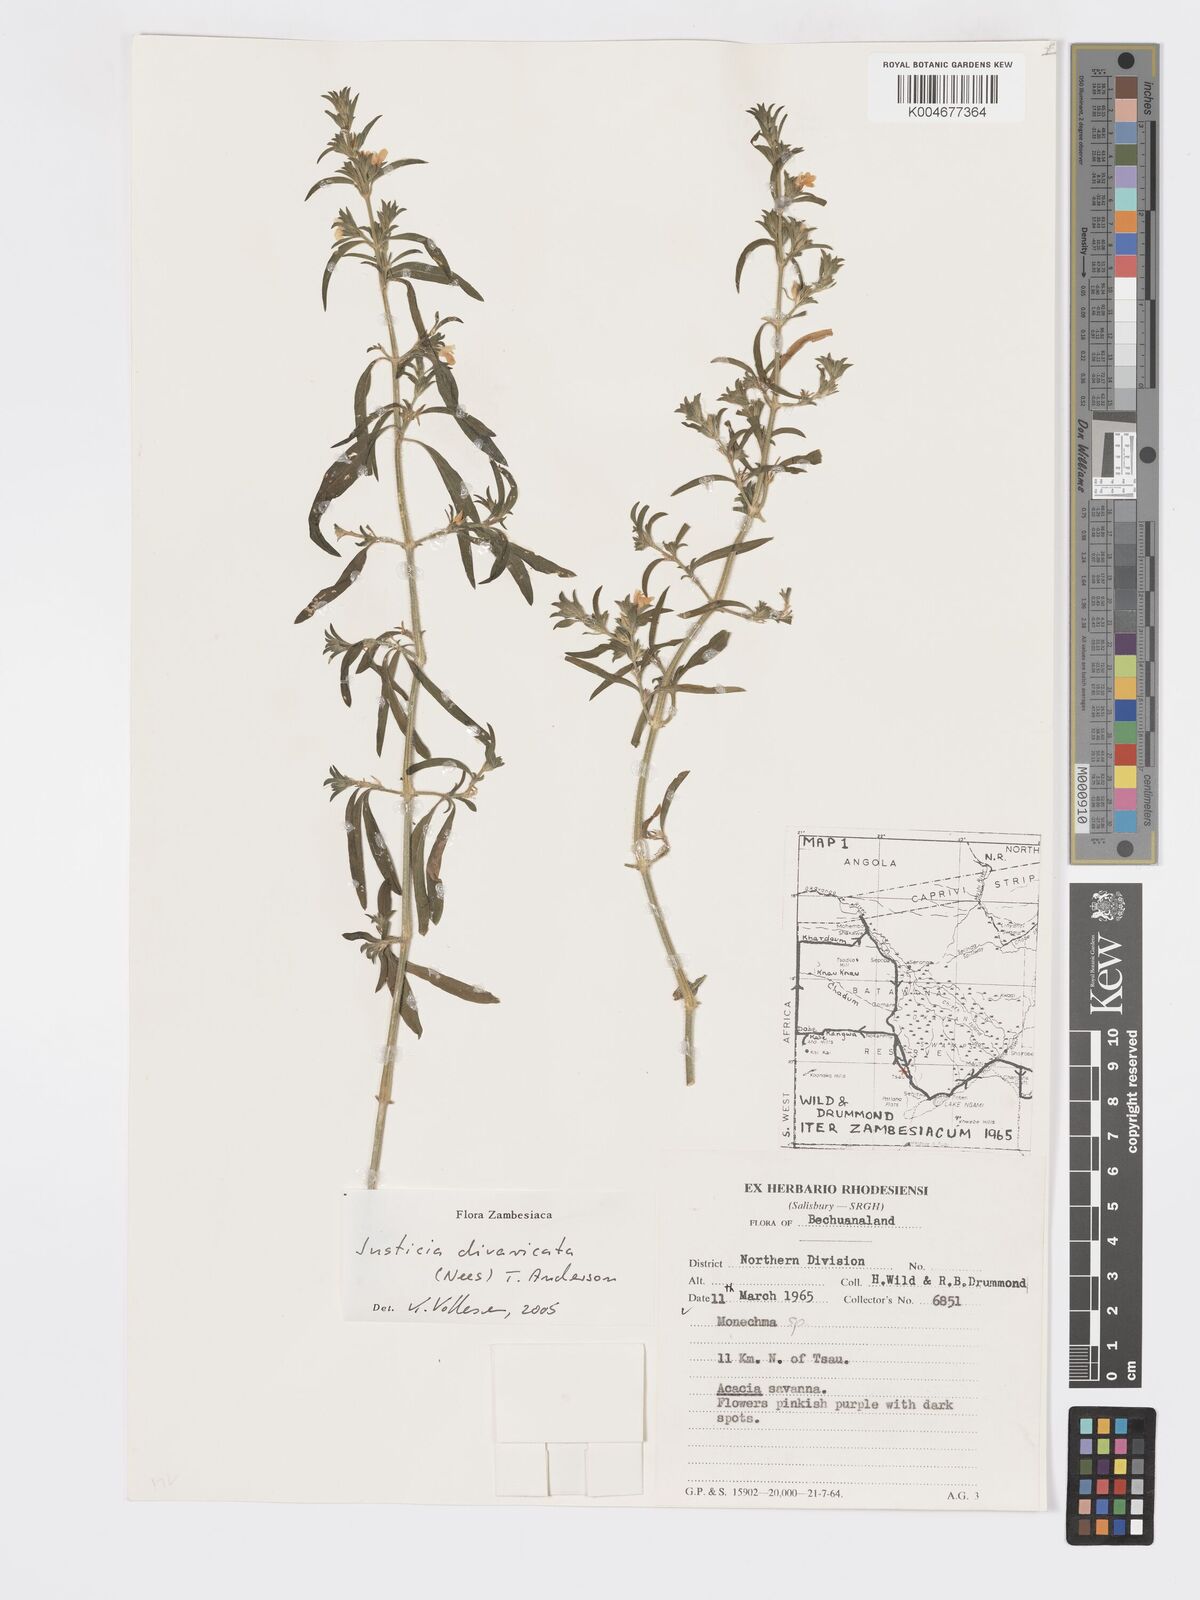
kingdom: Plantae
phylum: Tracheophyta
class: Magnoliopsida
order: Lamiales
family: Acanthaceae
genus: Pogonospermum
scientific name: Pogonospermum
